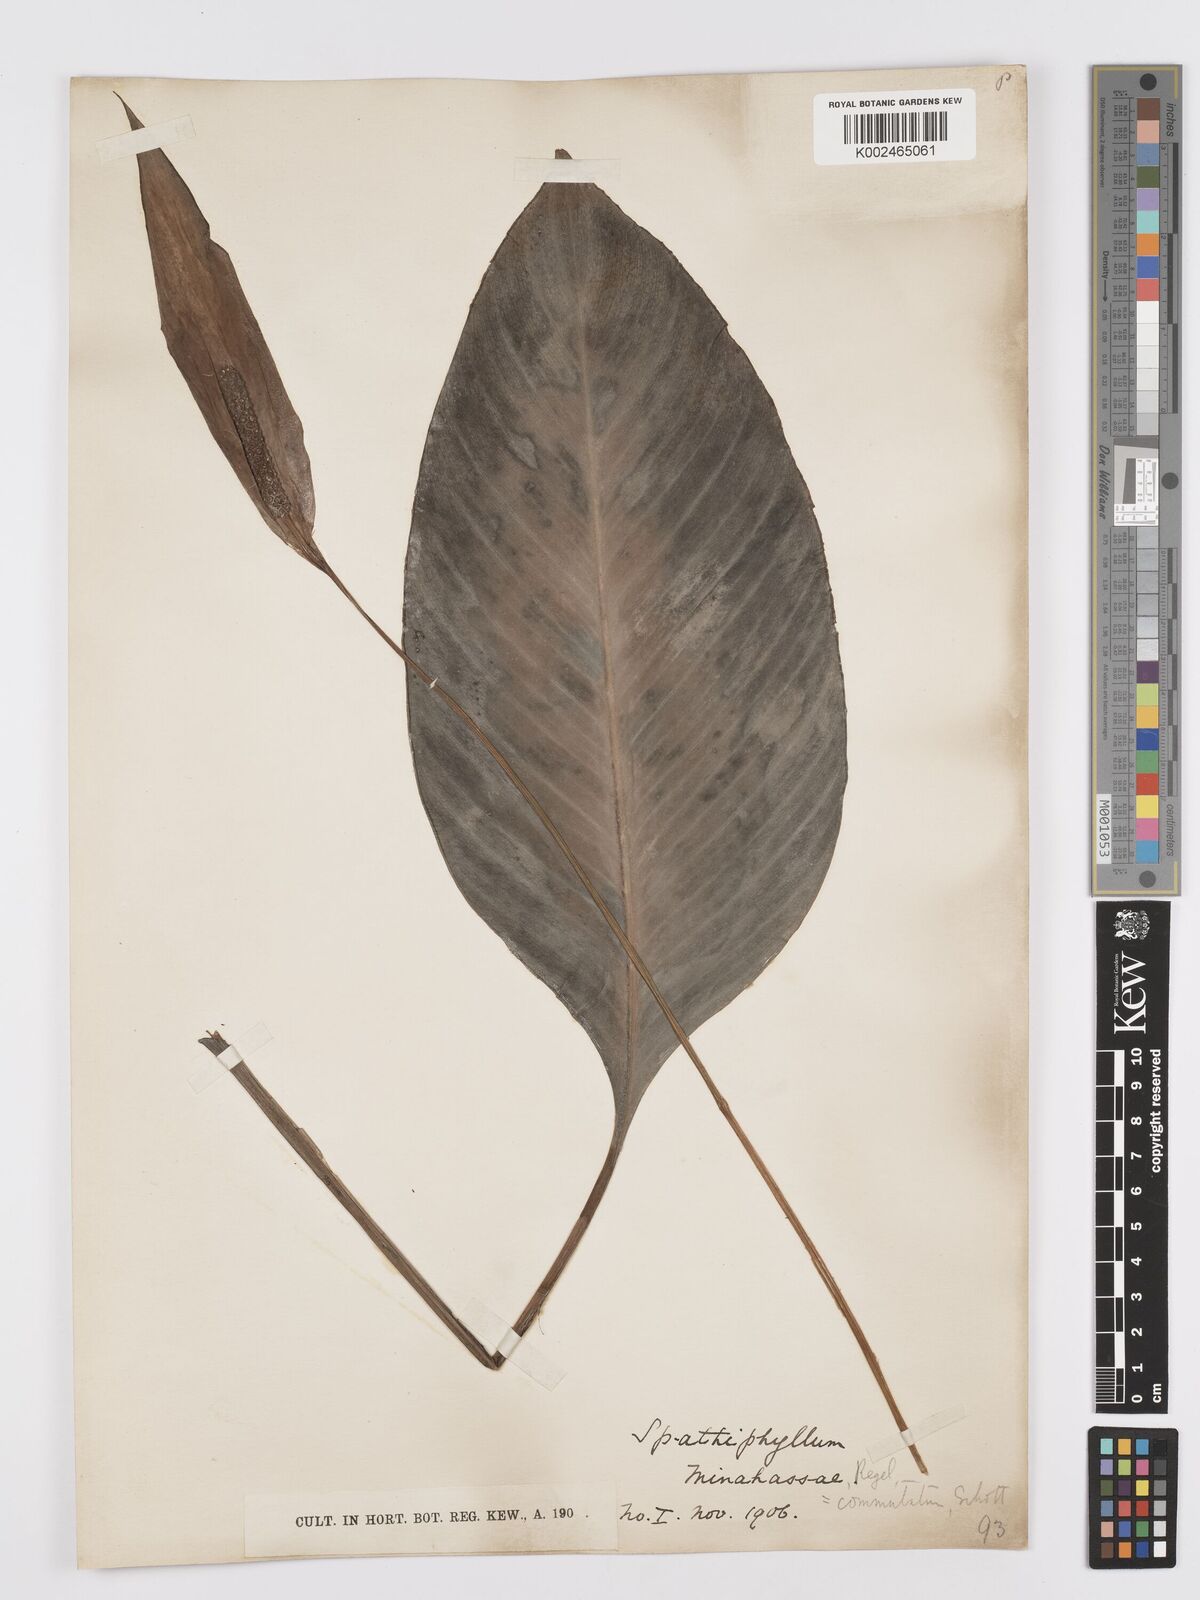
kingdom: Plantae
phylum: Tracheophyta
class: Liliopsida
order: Alismatales
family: Araceae
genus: Spathiphyllum
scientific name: Spathiphyllum commutatum
